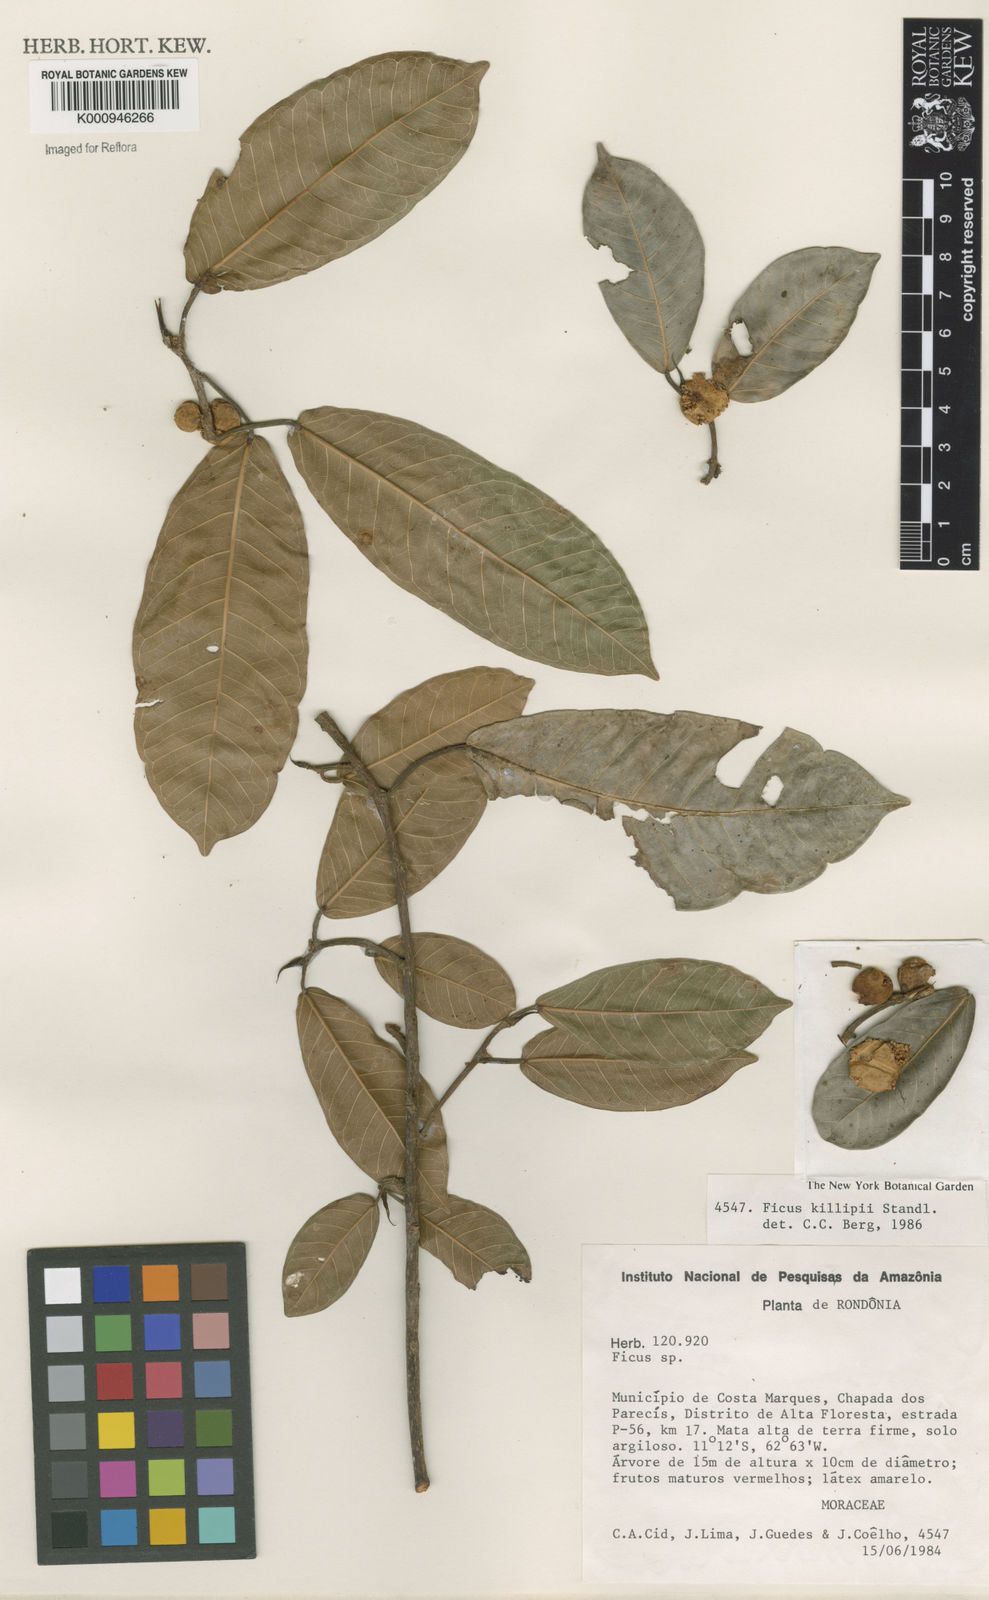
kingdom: Plantae
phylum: Tracheophyta
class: Magnoliopsida
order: Rosales
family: Moraceae
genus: Ficus
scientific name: Ficus coerulescens
